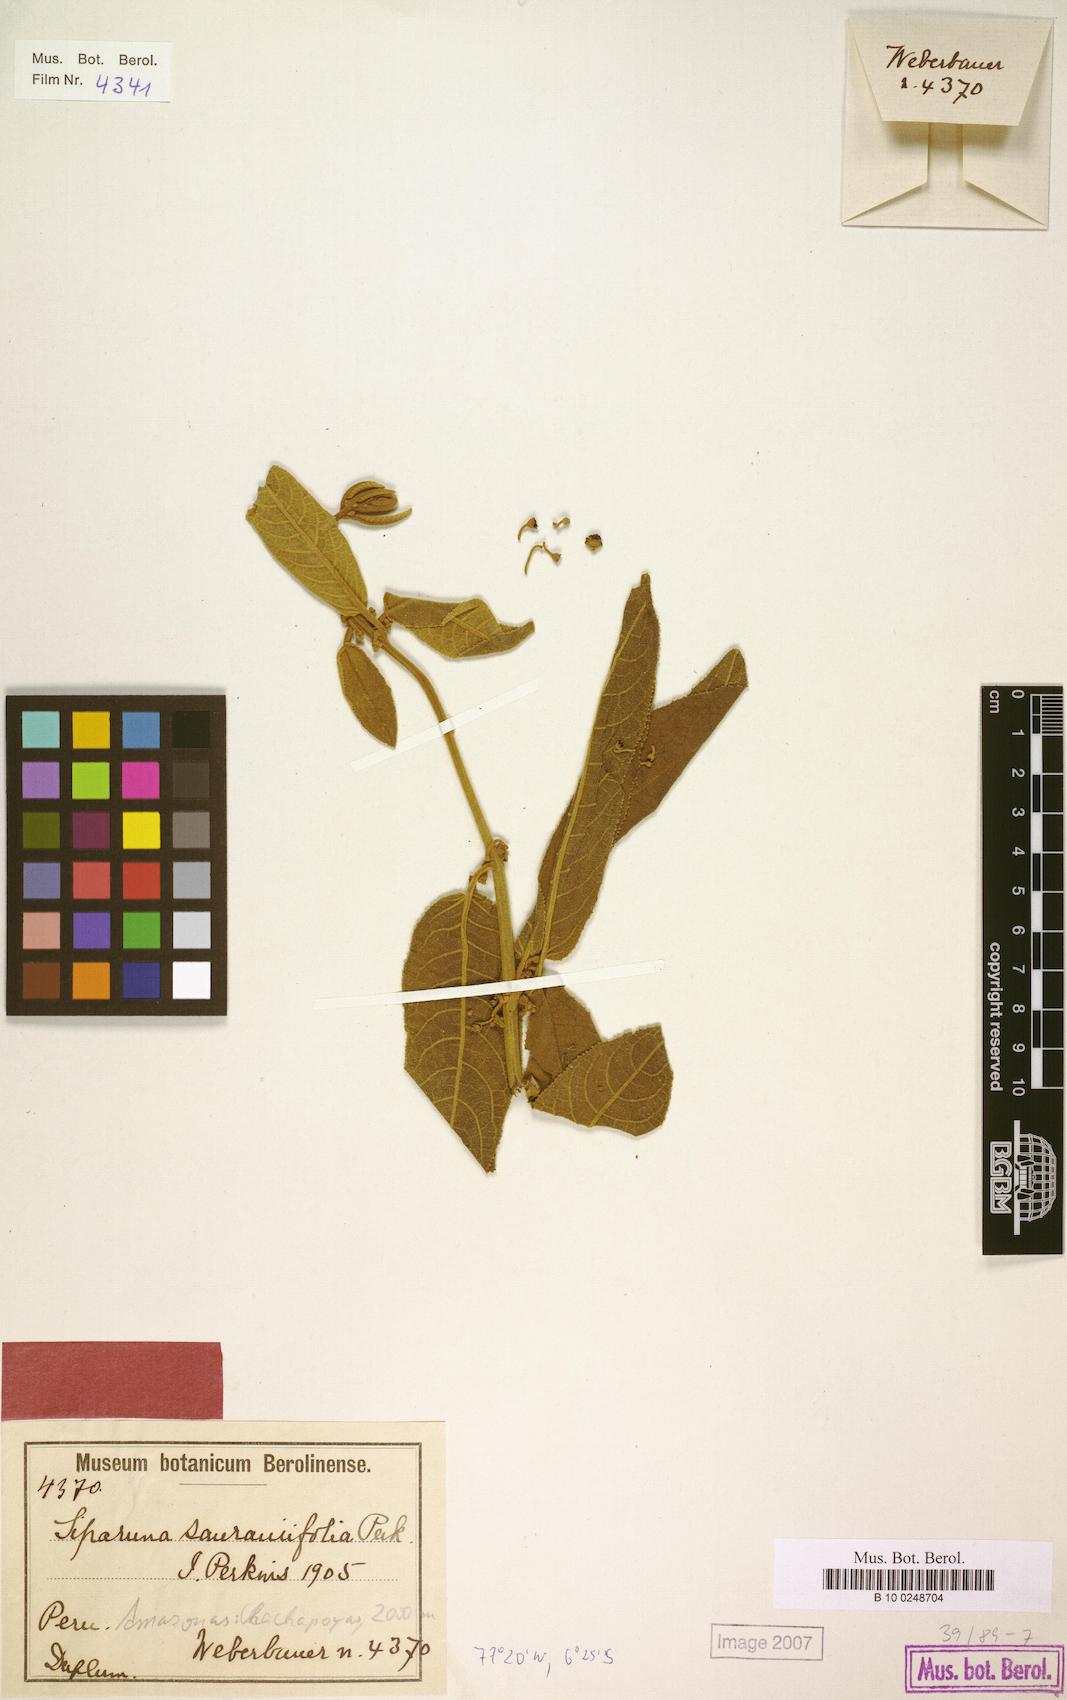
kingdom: Plantae
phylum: Tracheophyta
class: Magnoliopsida
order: Laurales
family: Siparunaceae
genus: Siparuna
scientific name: Siparuna tomentosa
